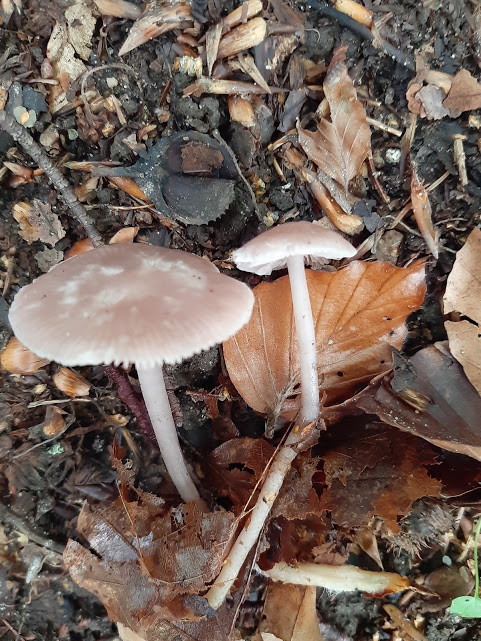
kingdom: Fungi
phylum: Basidiomycota
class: Agaricomycetes
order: Agaricales
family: Mycenaceae
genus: Mycena
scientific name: Mycena rosea
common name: rosa huesvamp
